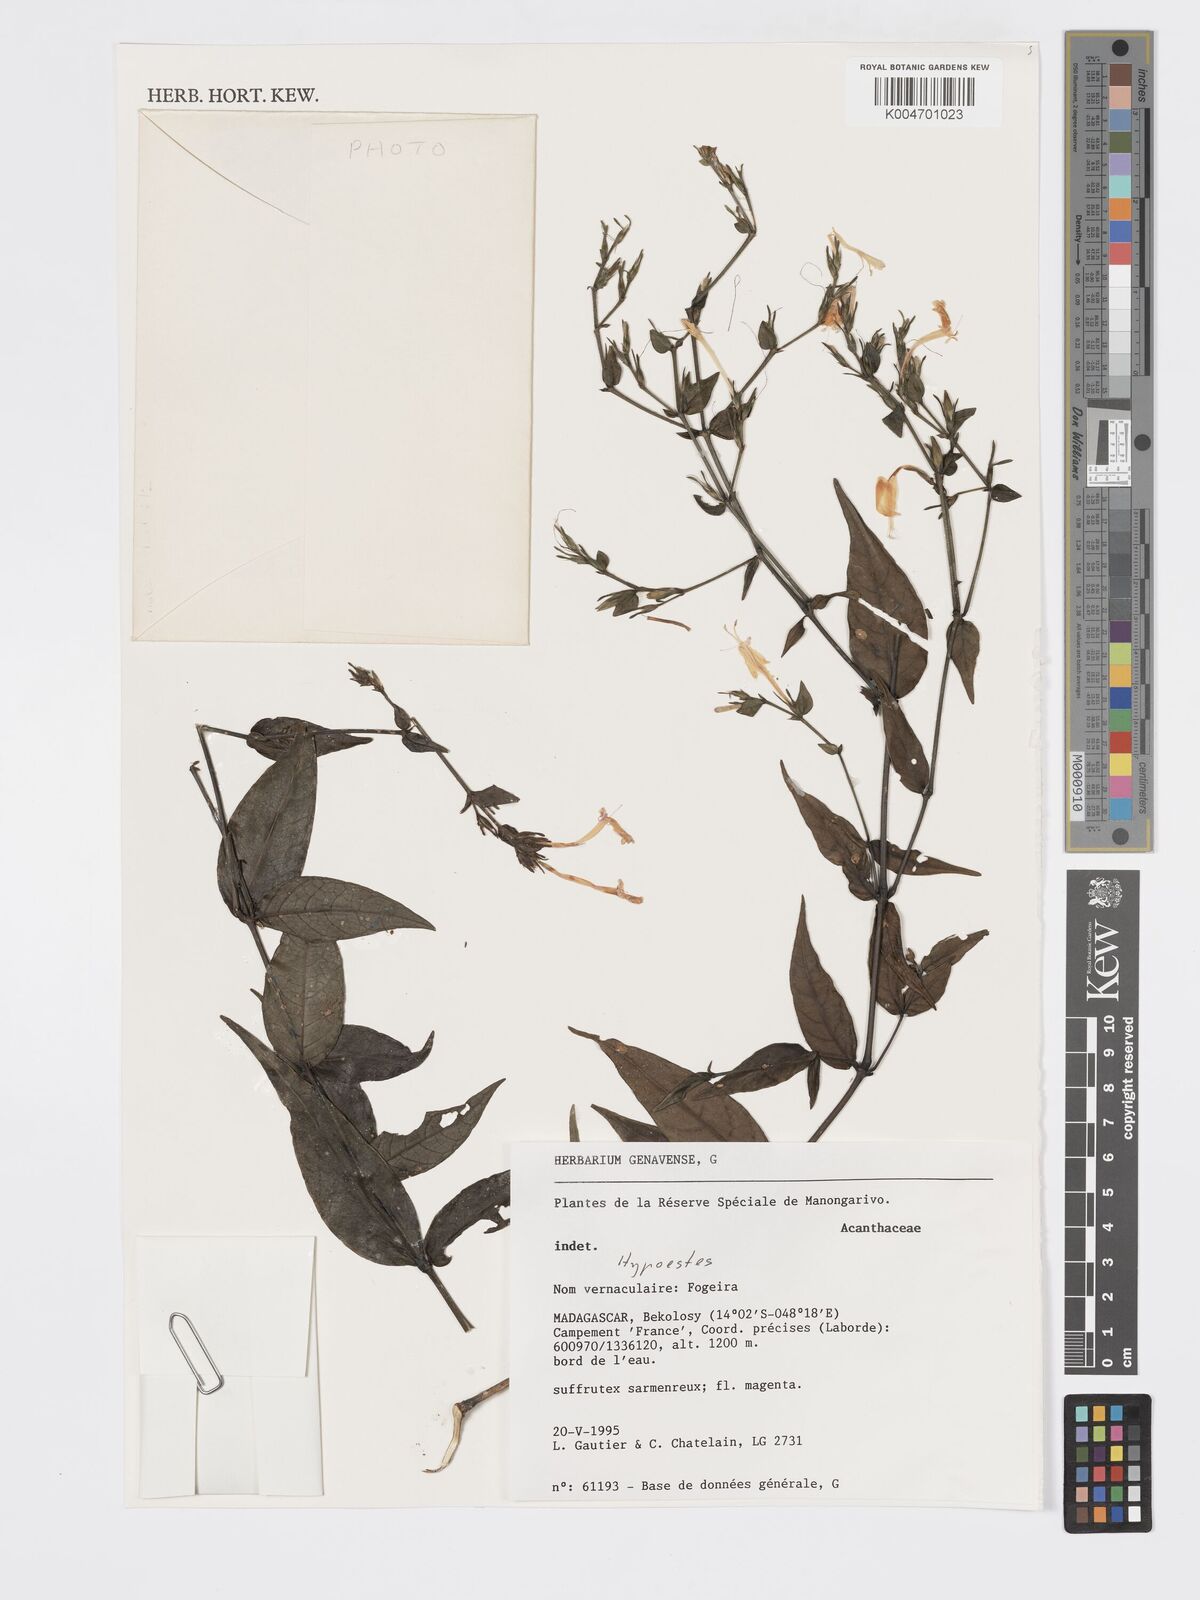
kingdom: Plantae
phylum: Tracheophyta
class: Magnoliopsida
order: Lamiales
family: Acanthaceae
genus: Hypoestes
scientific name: Hypoestes
